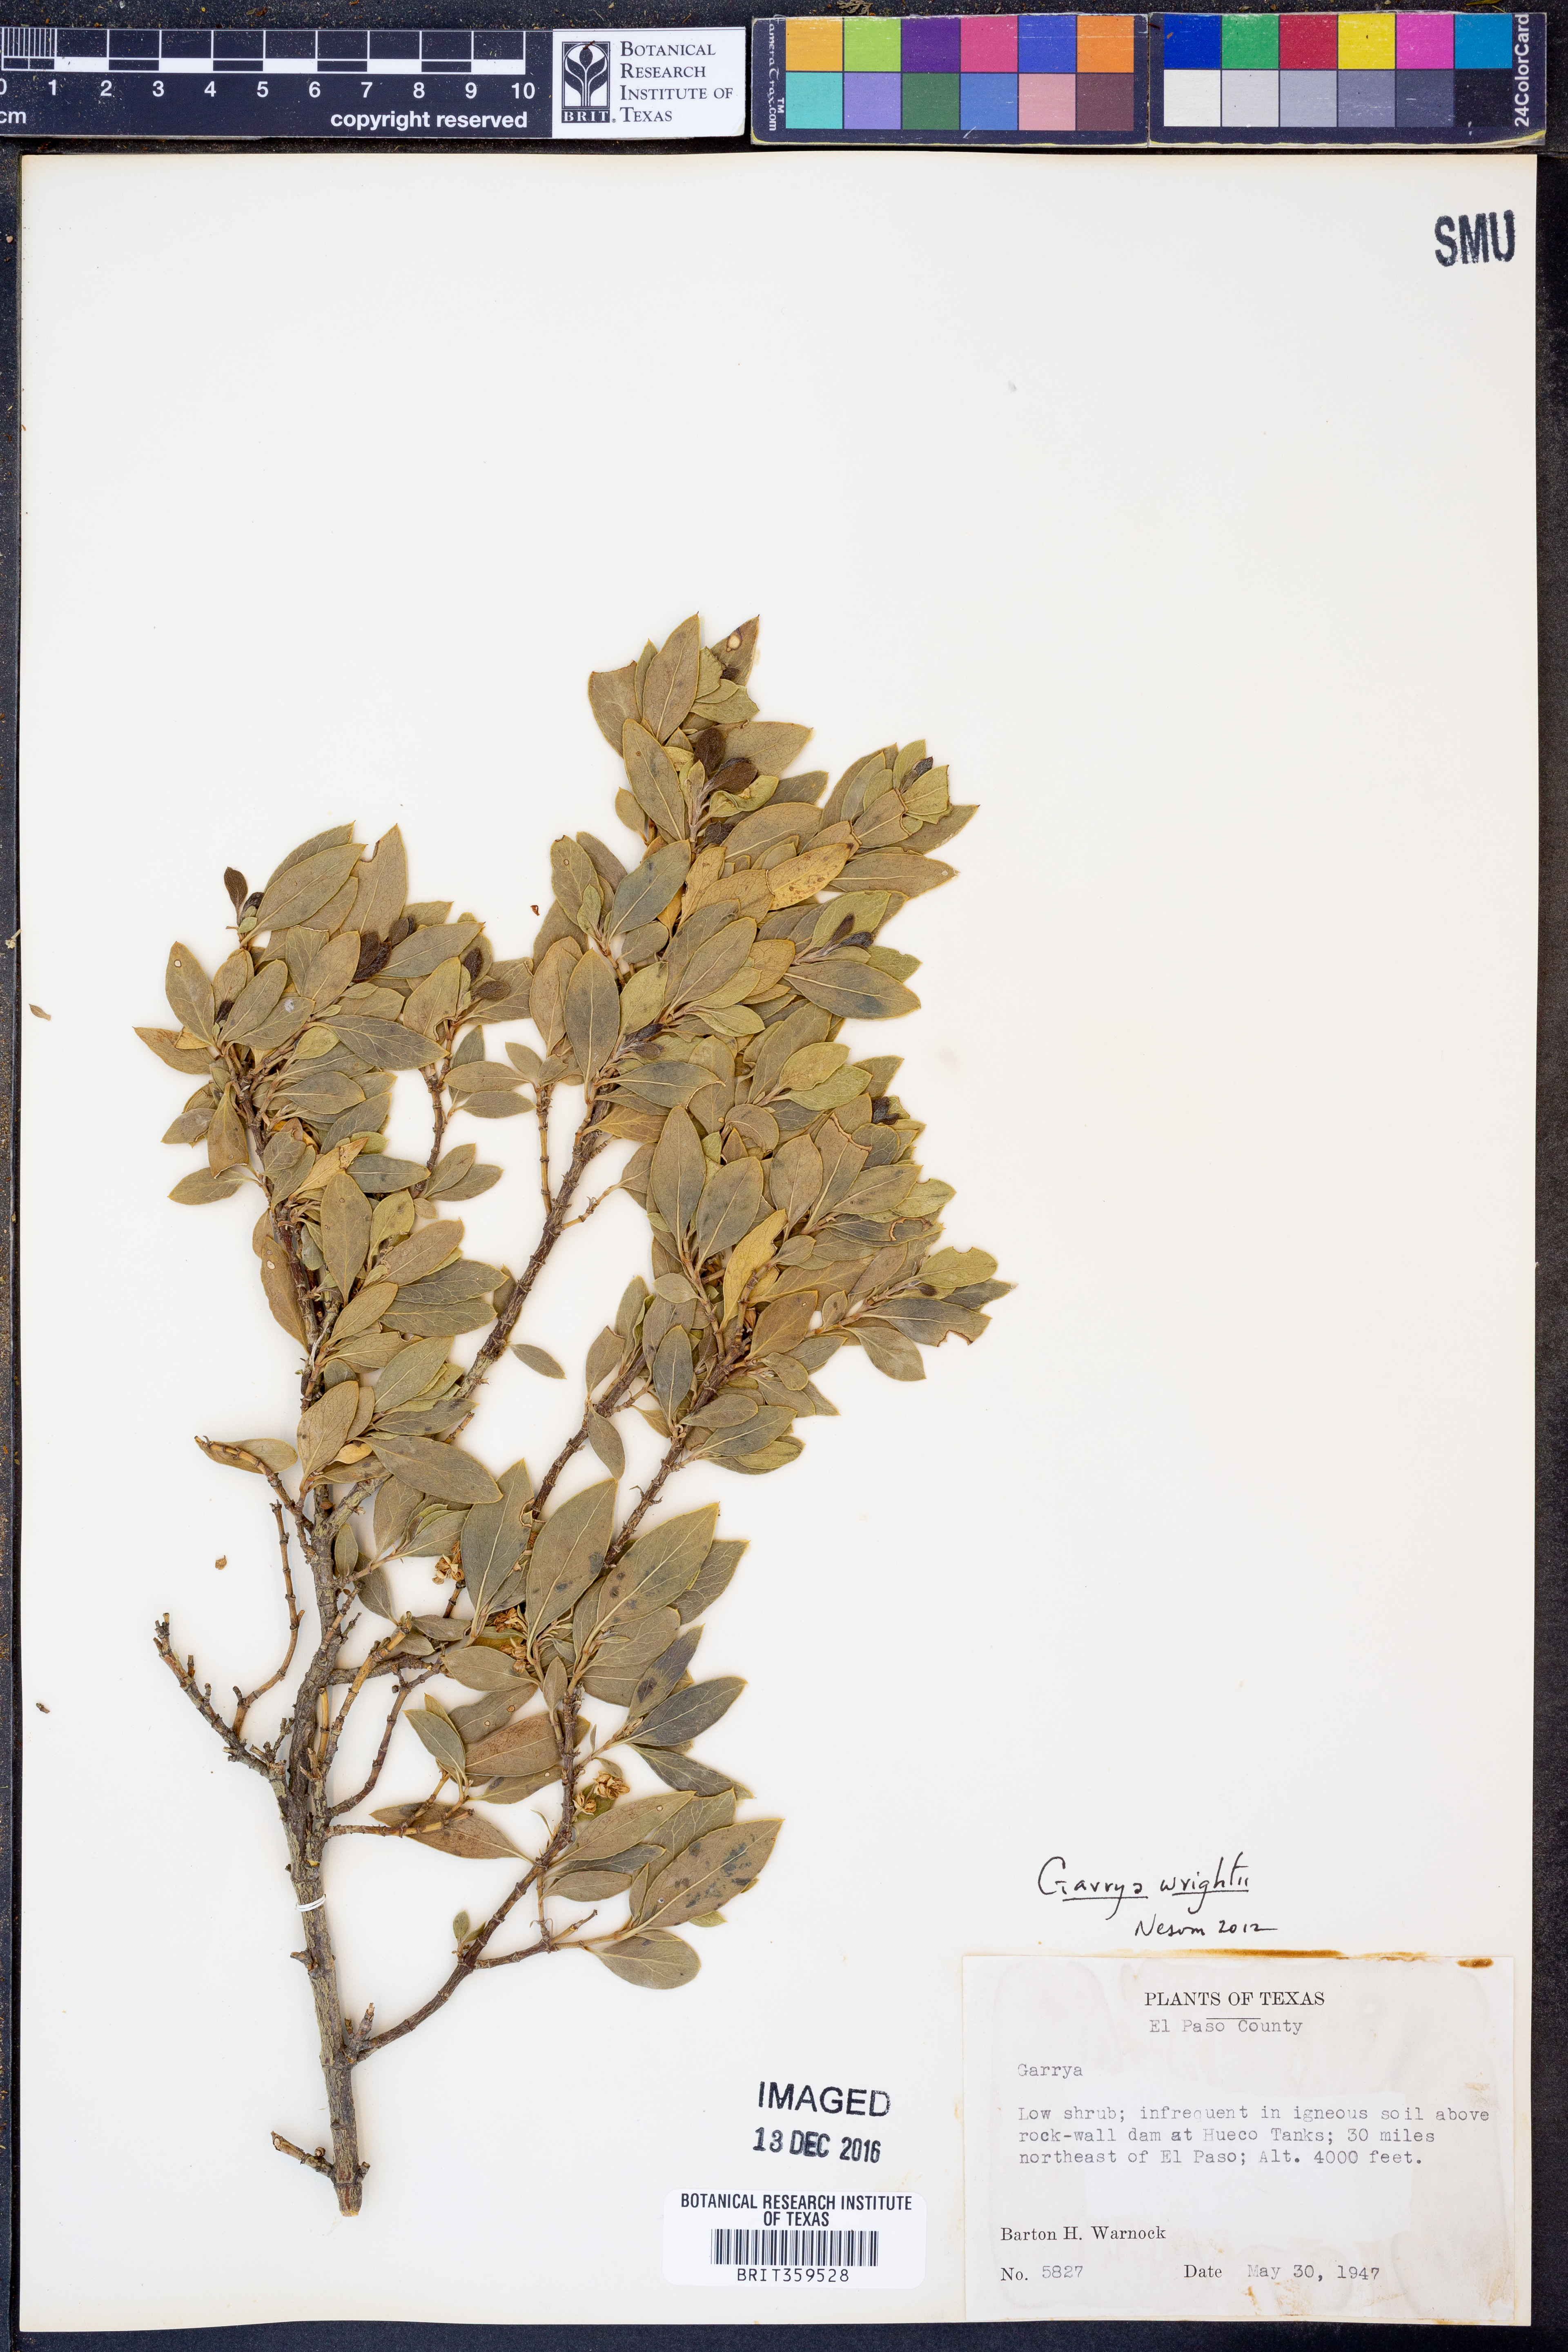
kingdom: Plantae
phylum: Tracheophyta
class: Magnoliopsida
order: Garryales
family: Garryaceae
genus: Garrya
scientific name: Garrya wrightii
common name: Wright's silktassel
